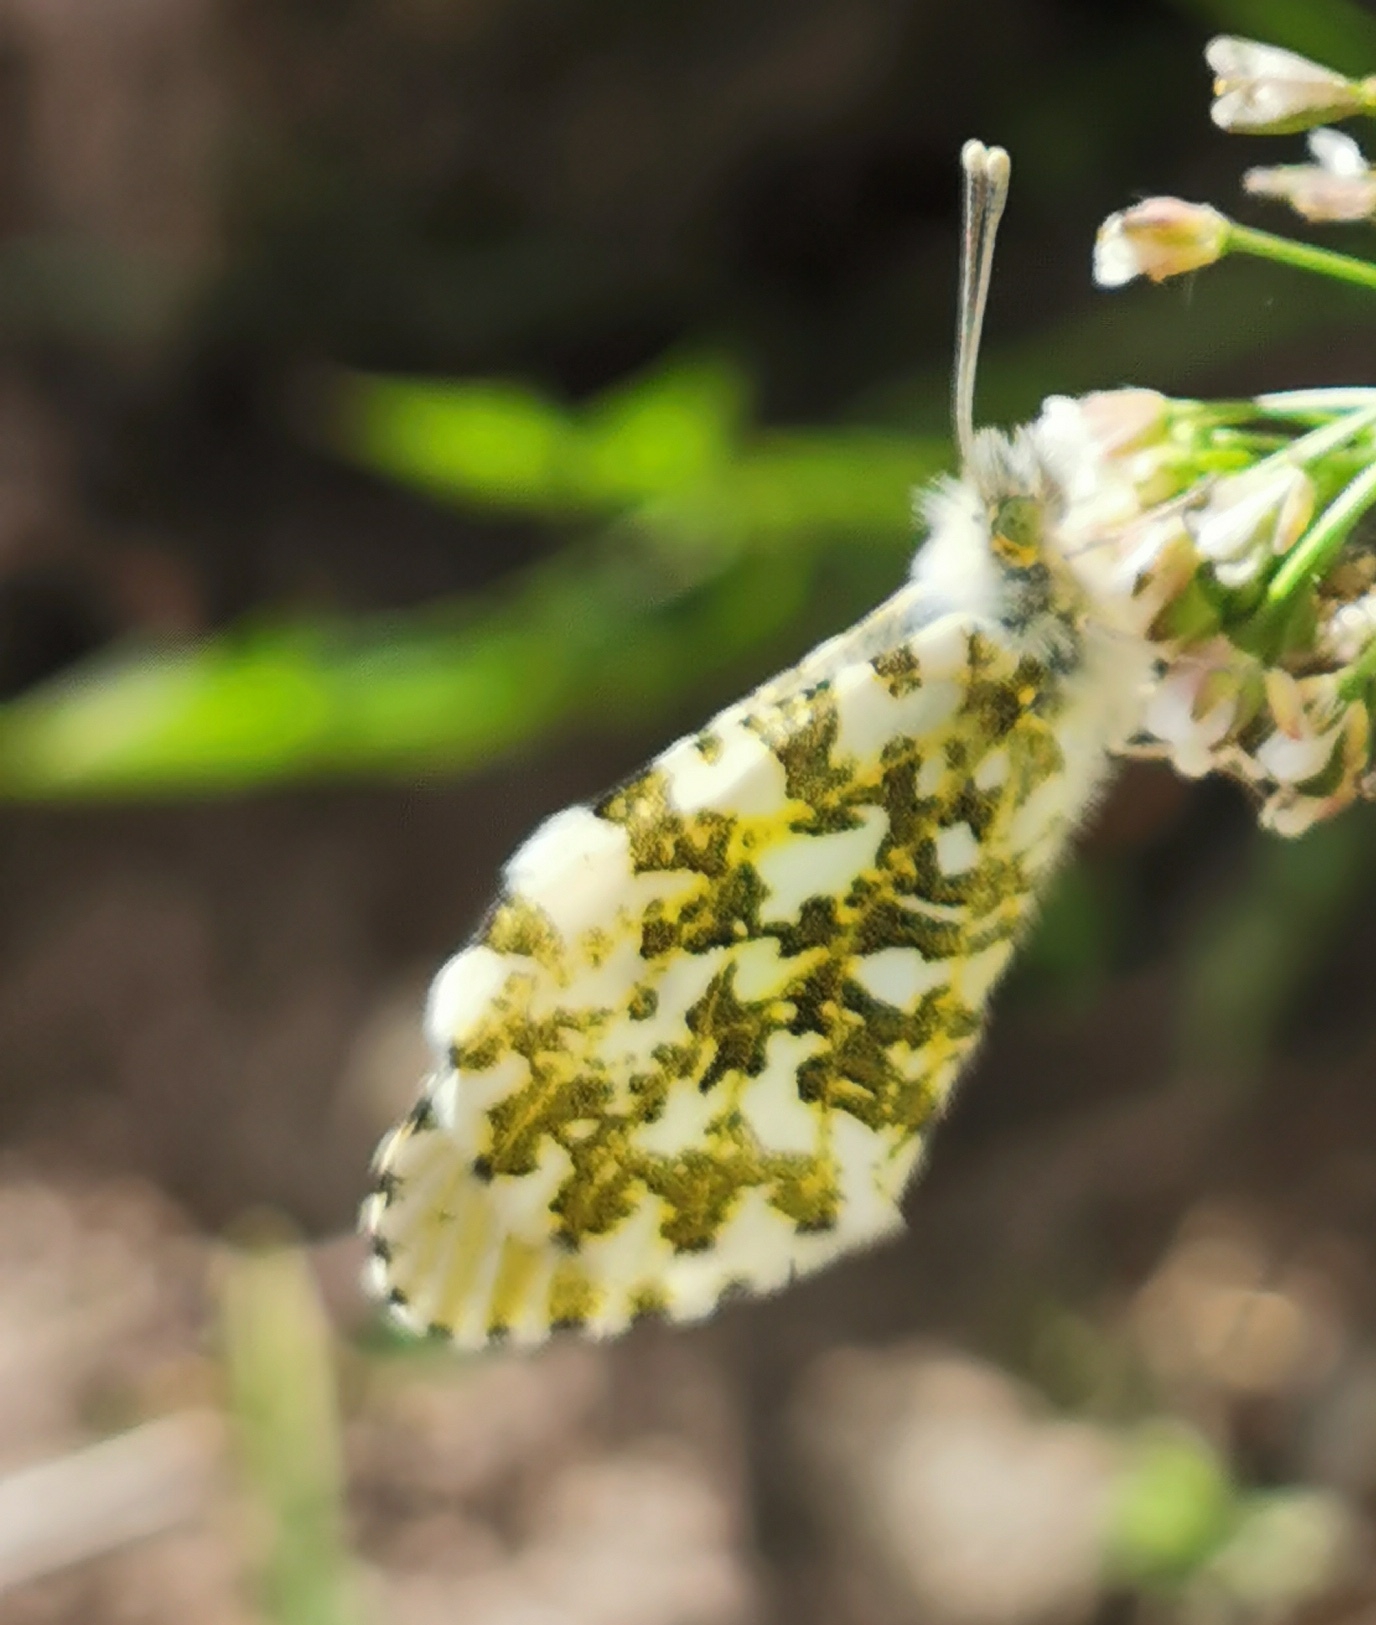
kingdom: Animalia
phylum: Arthropoda
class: Insecta
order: Lepidoptera
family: Pieridae
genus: Anthocharis
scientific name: Anthocharis cardamines
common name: Aurora
